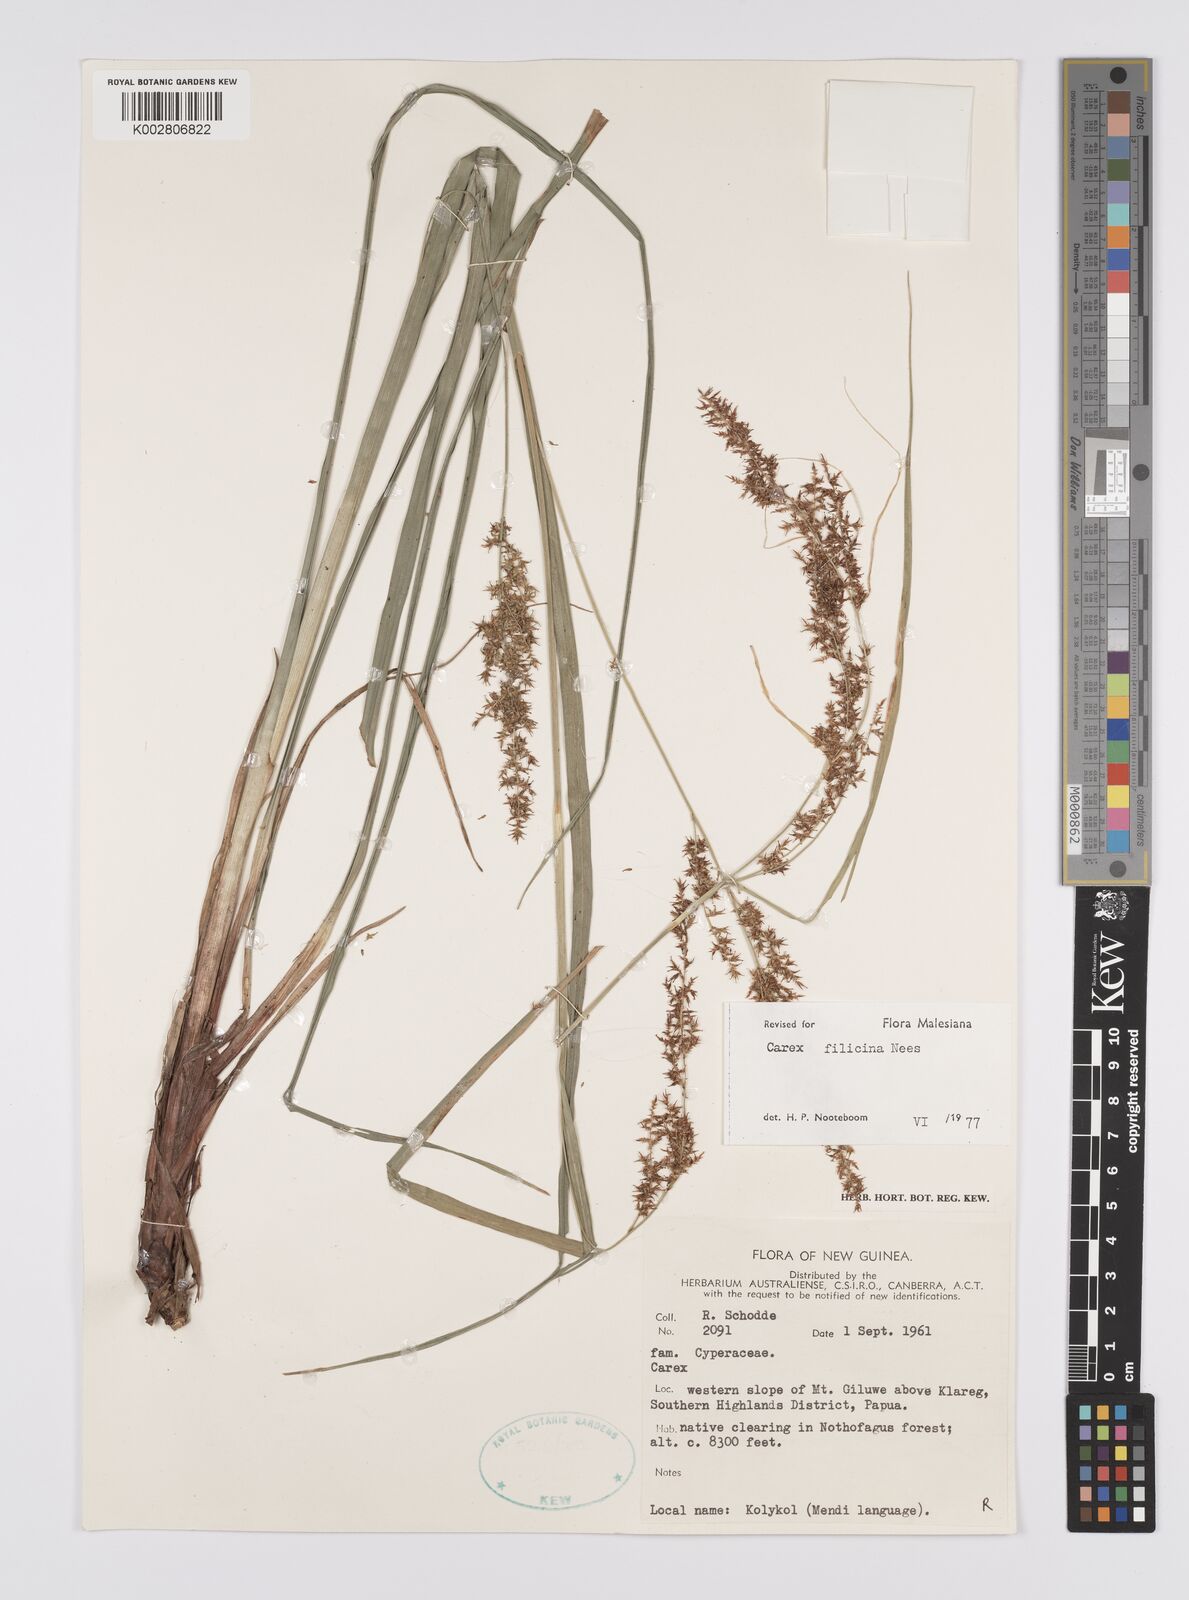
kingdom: Plantae
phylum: Tracheophyta
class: Liliopsida
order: Poales
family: Cyperaceae
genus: Carex
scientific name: Carex filicina
